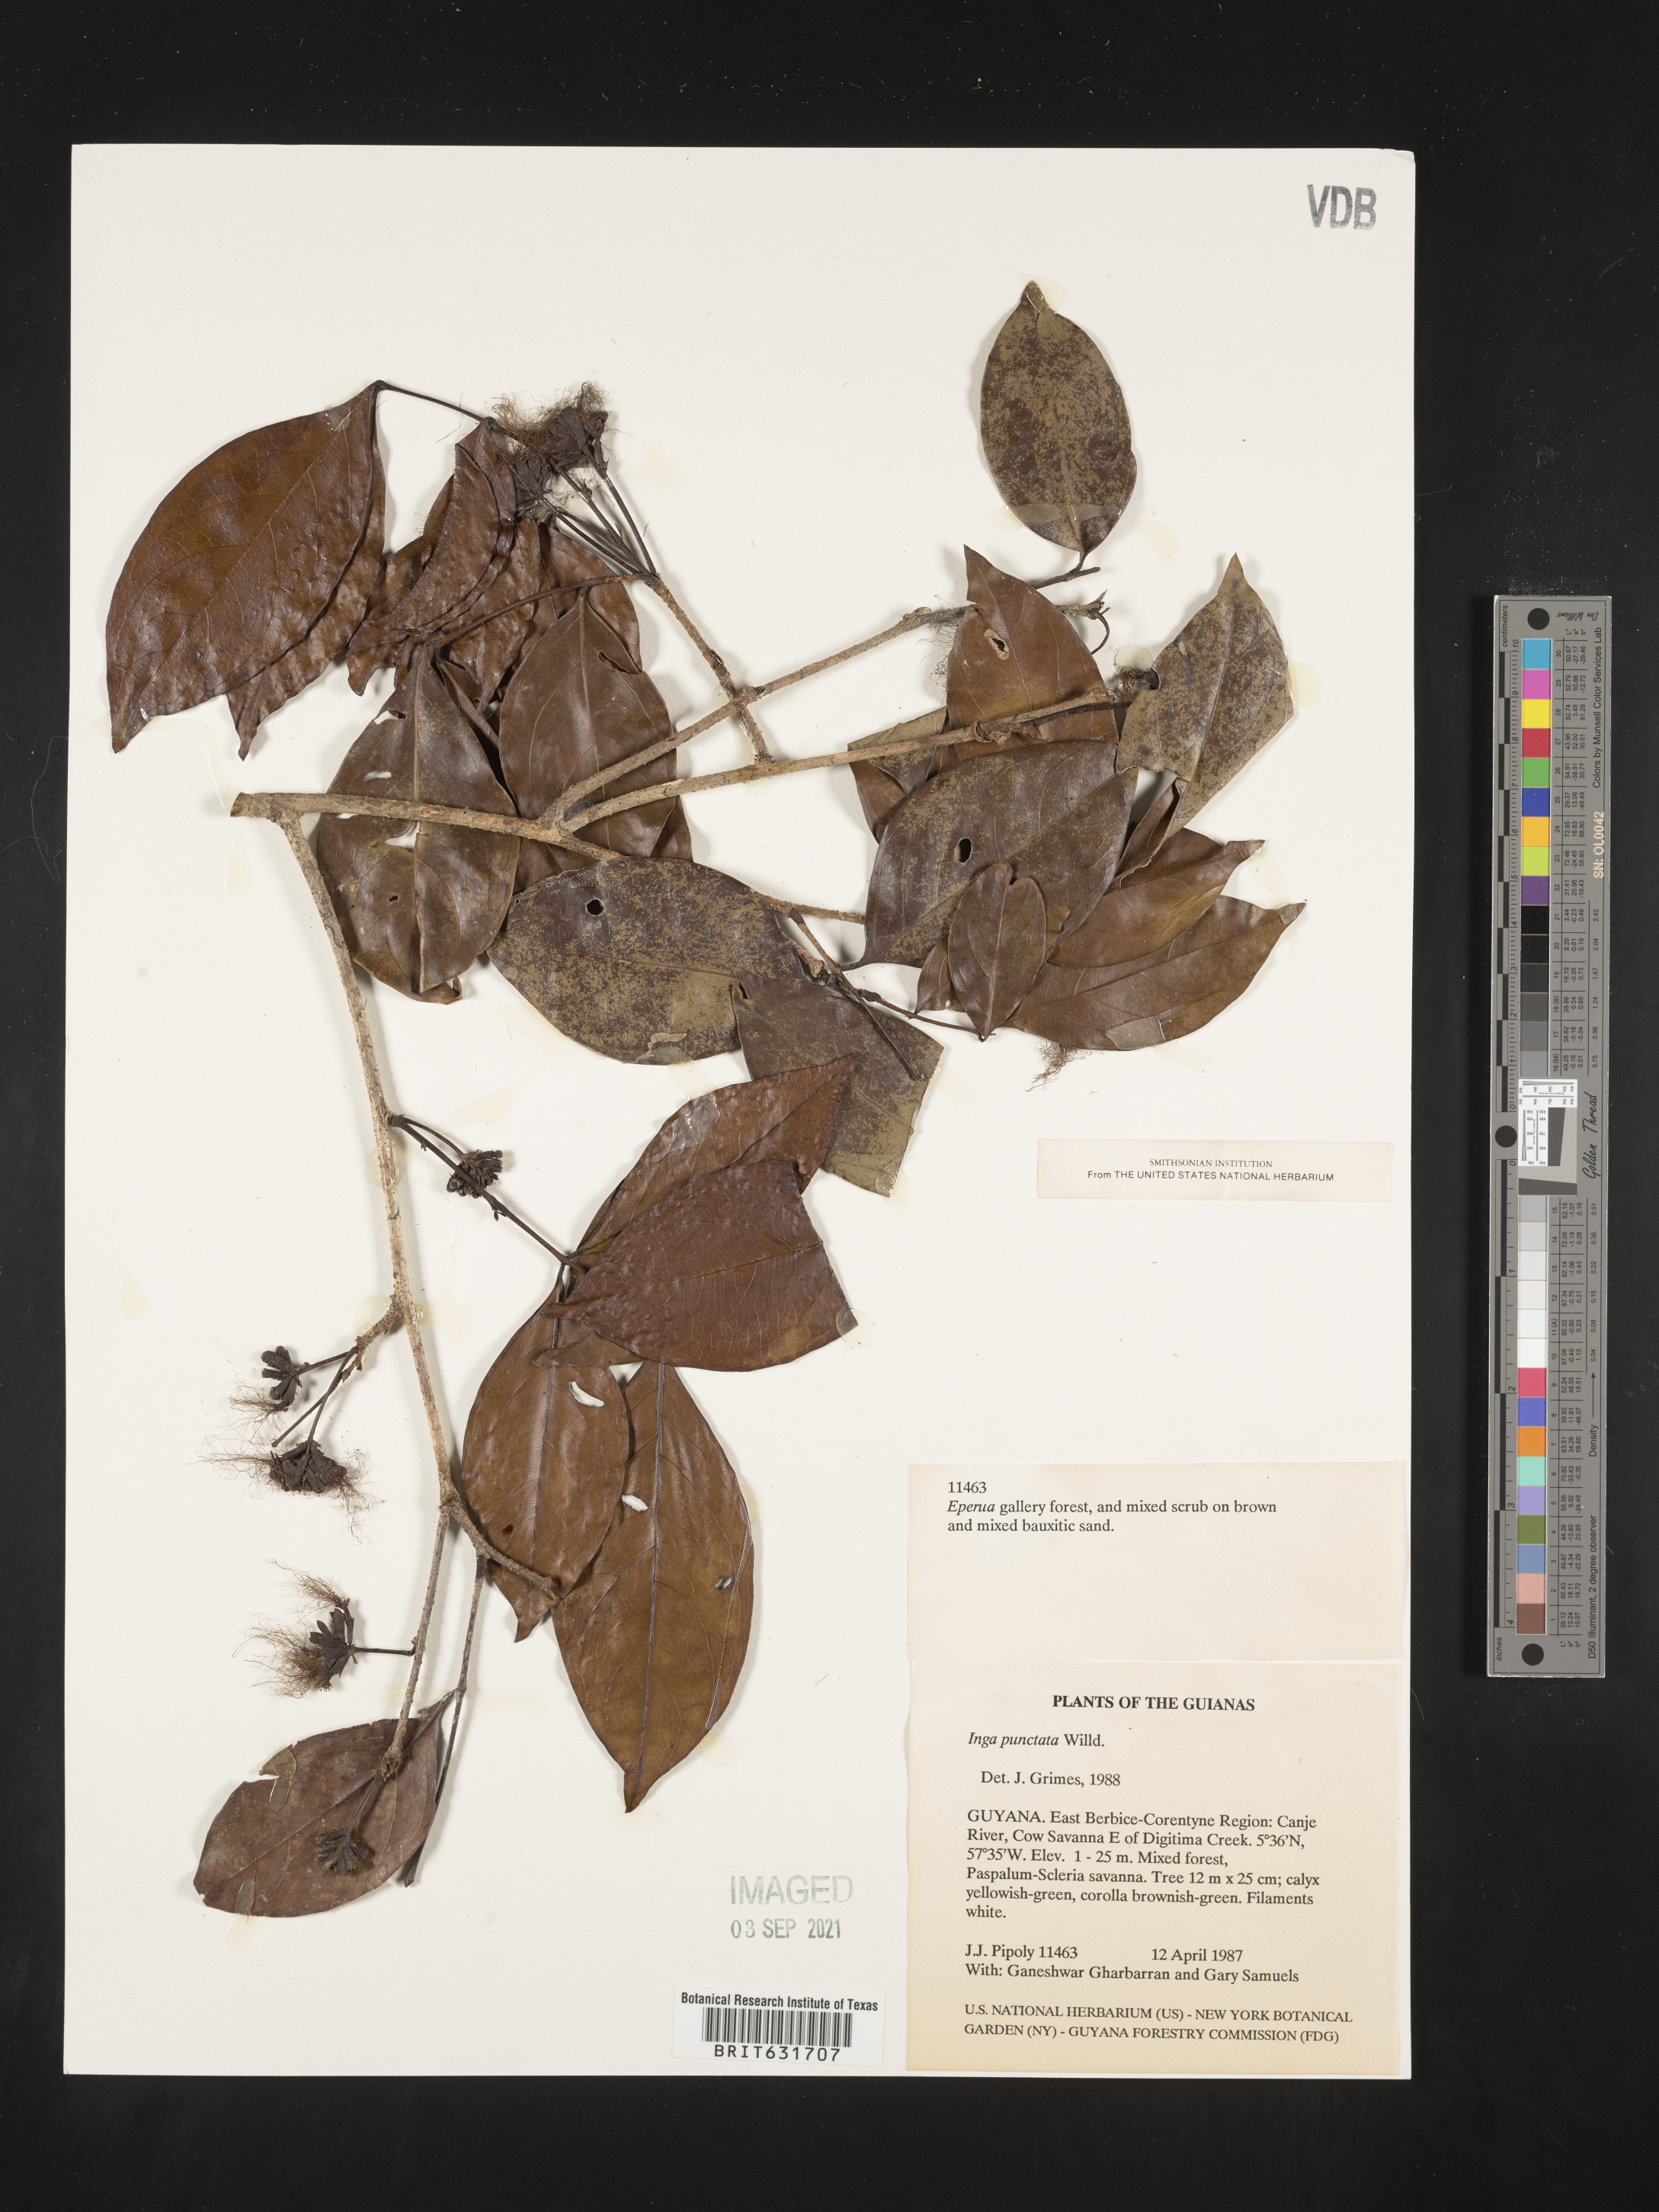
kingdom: Plantae
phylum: Tracheophyta
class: Magnoliopsida
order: Fabales
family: Fabaceae
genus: Inga
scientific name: Inga
